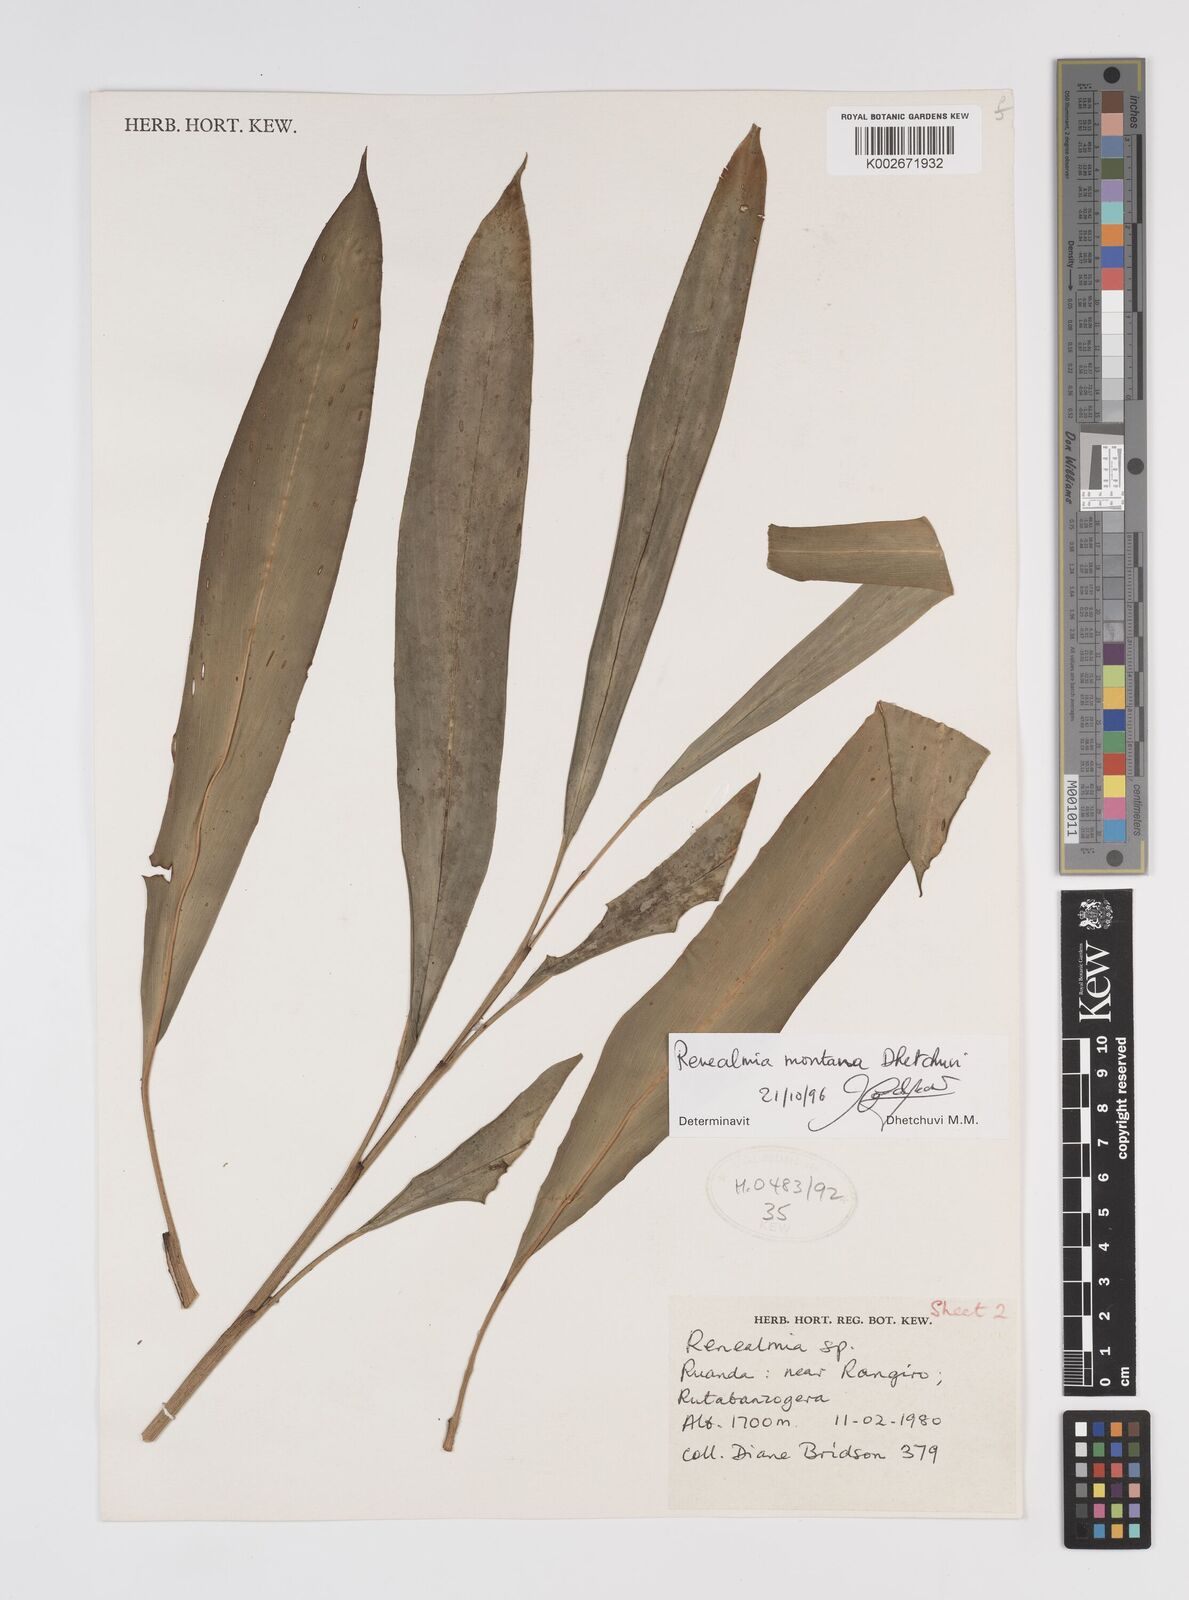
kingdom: Plantae
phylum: Tracheophyta
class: Liliopsida
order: Zingiberales
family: Zingiberaceae
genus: Renealmia
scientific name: Renealmia
